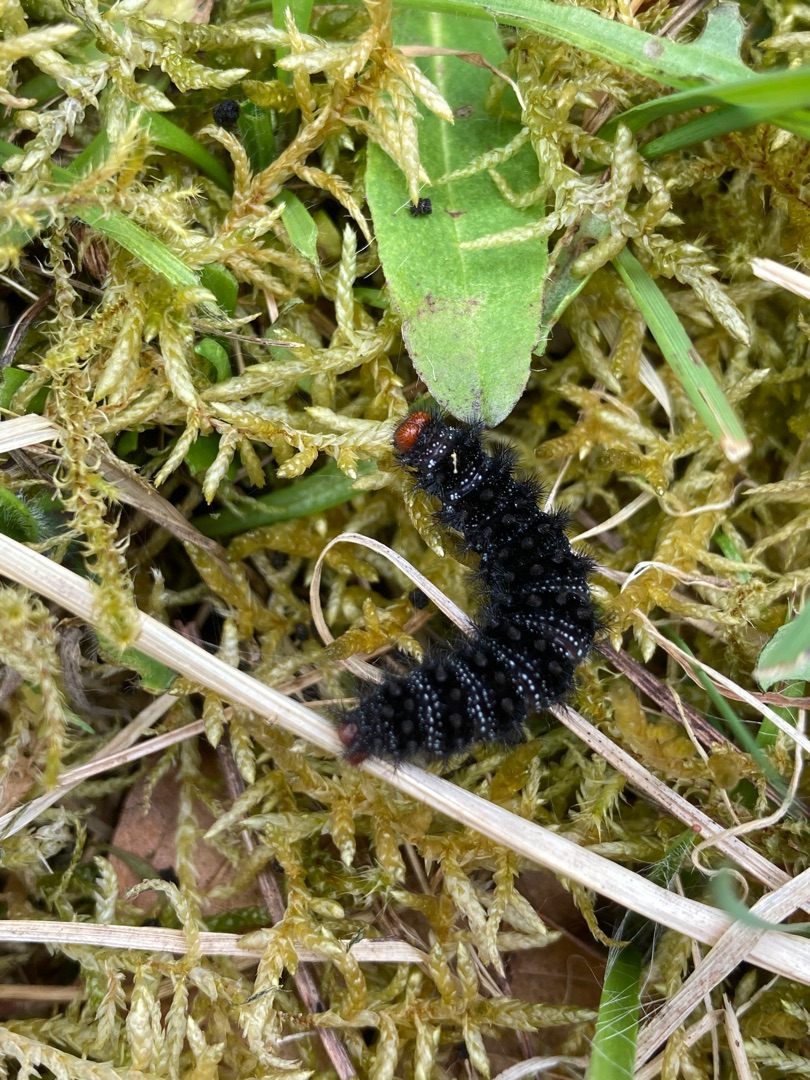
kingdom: Animalia
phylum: Arthropoda
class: Insecta
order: Lepidoptera
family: Nymphalidae
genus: Melitaea
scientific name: Melitaea cinxia
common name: Okkergul pletvinge
